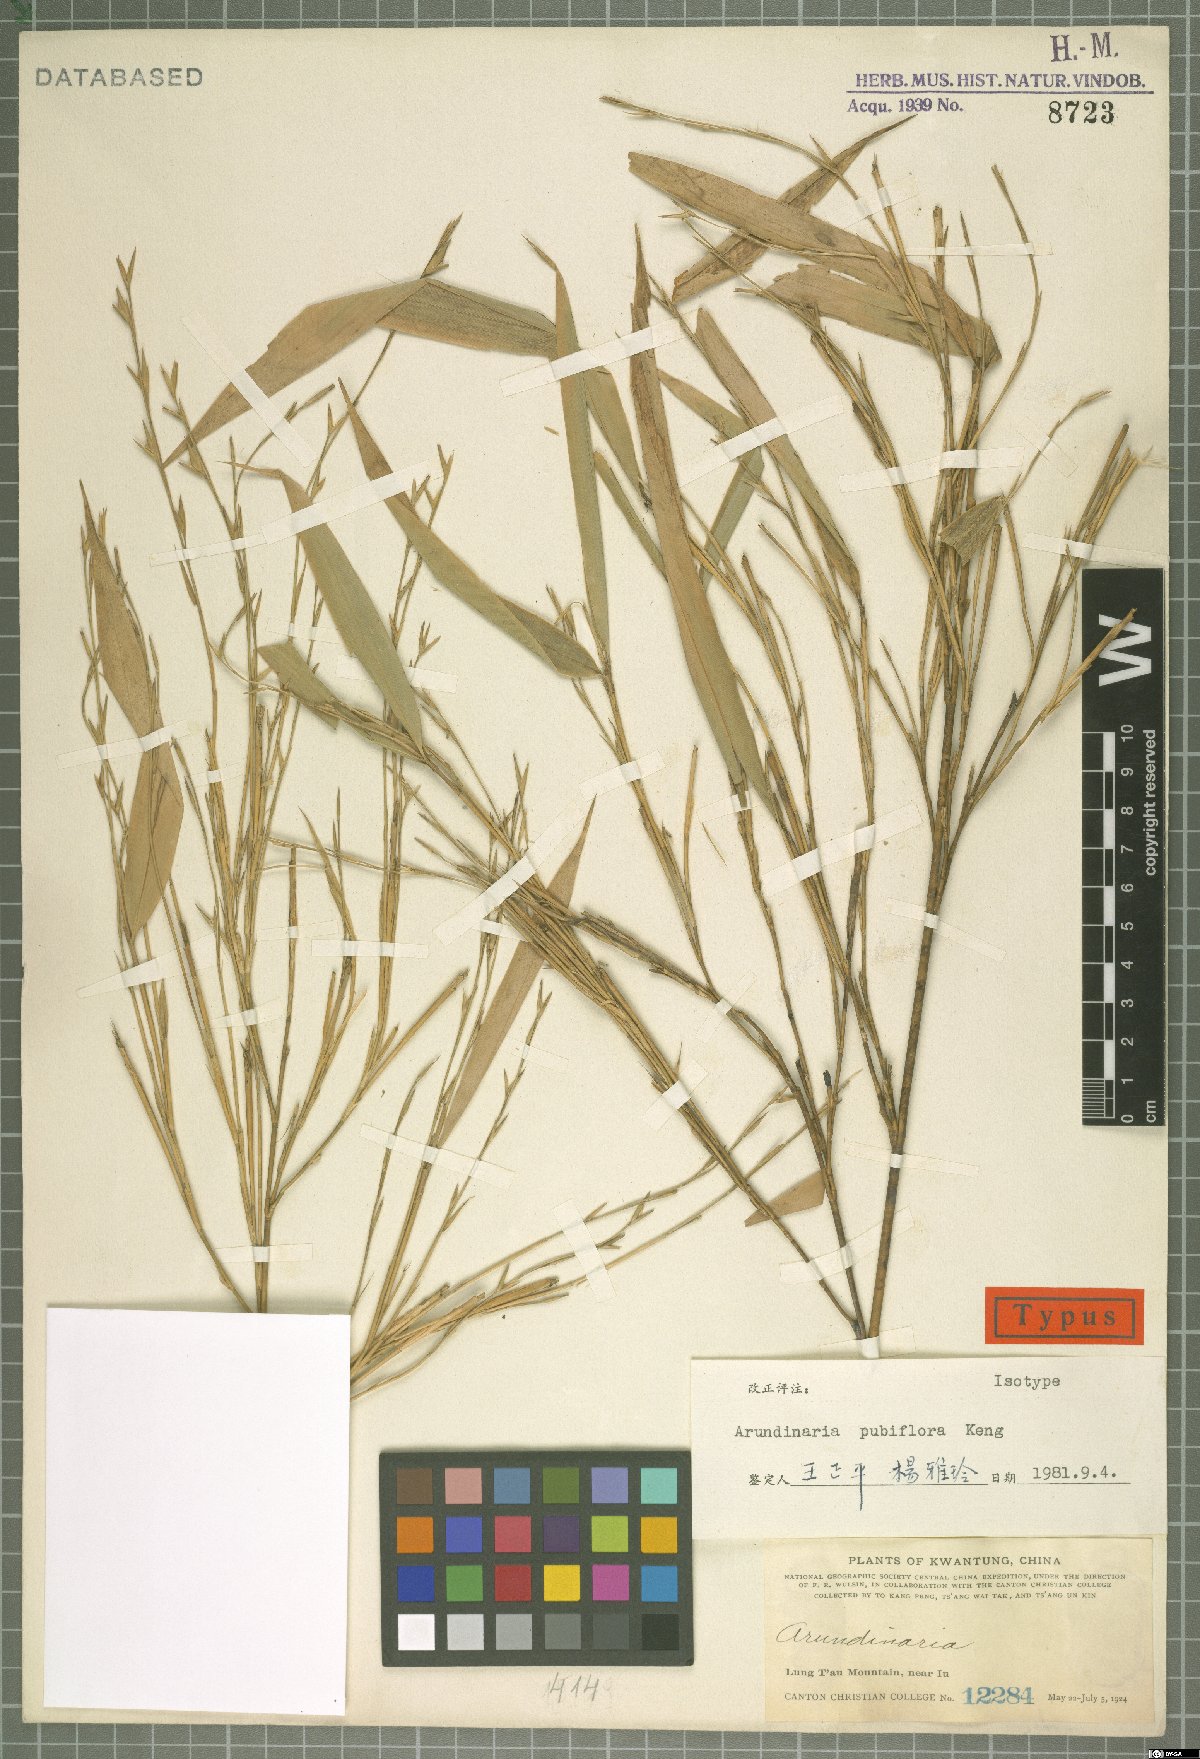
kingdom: Plantae
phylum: Tracheophyta
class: Liliopsida
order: Poales
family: Poaceae
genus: Pseudosasa
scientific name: Pseudosasa pubiflora
